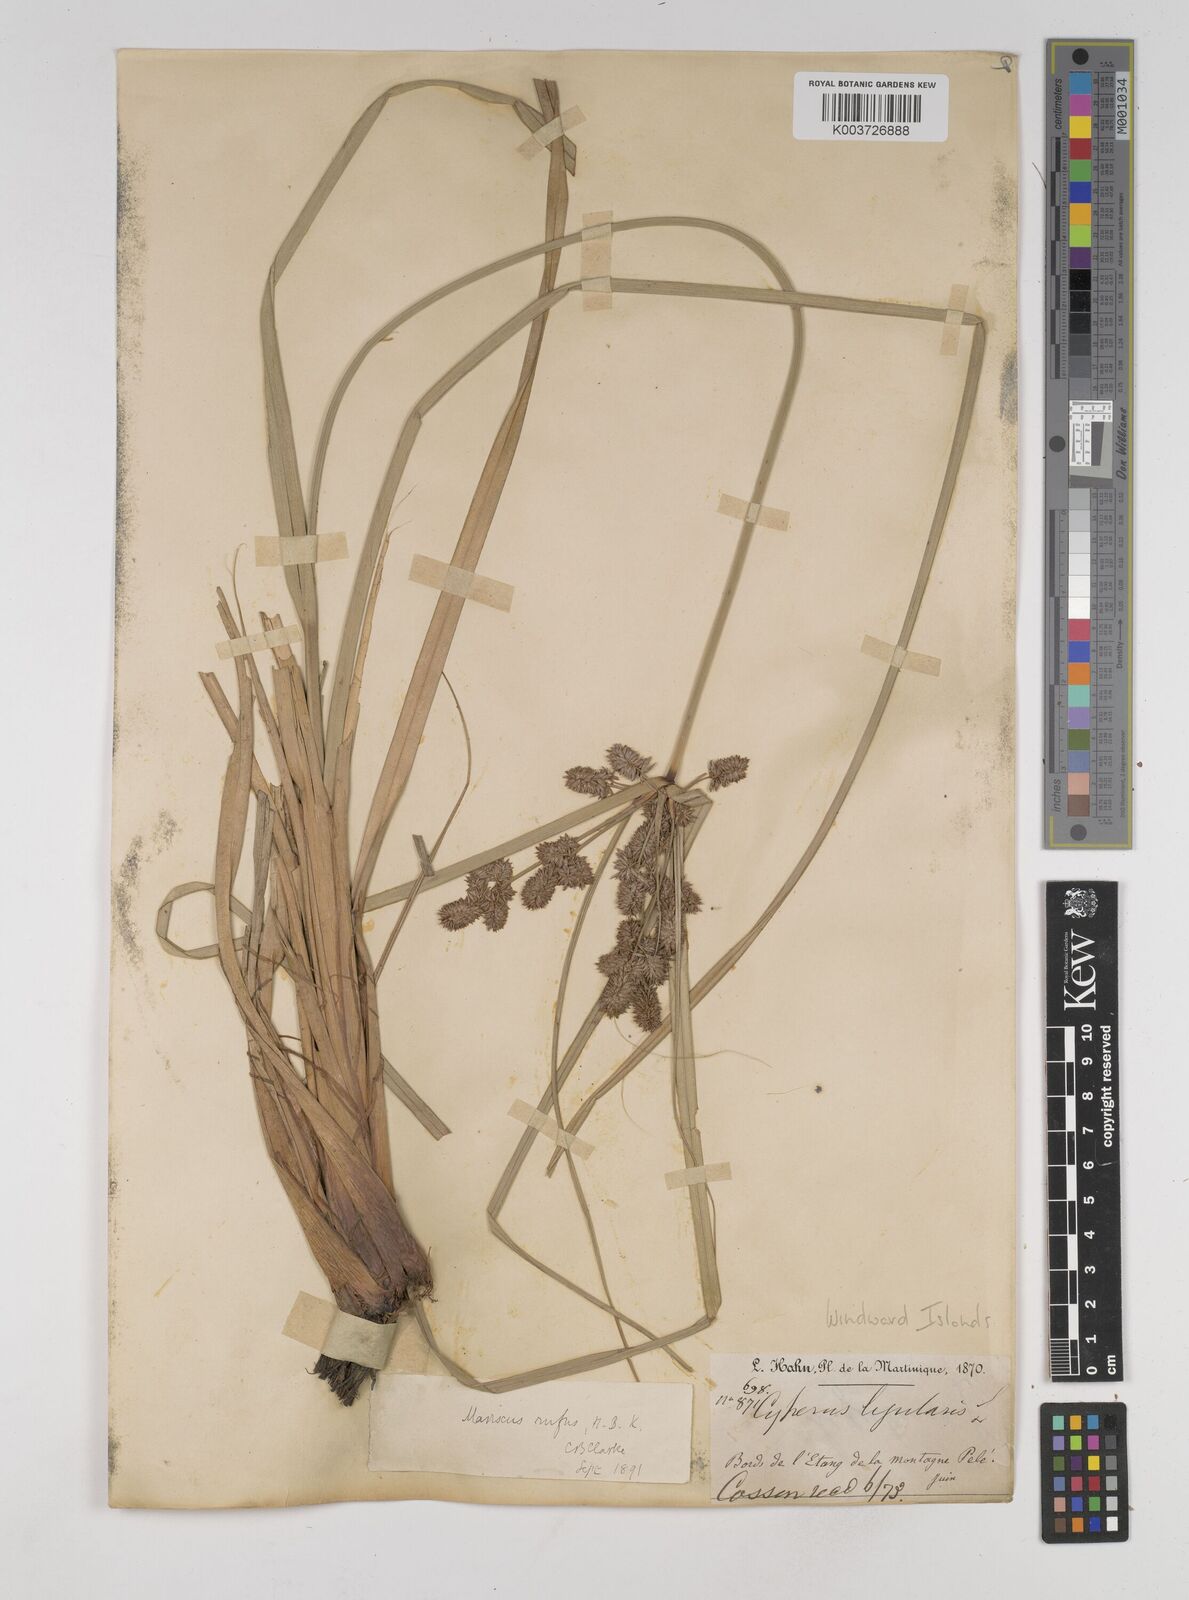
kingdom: Plantae
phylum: Tracheophyta
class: Liliopsida
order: Poales
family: Cyperaceae
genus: Cyperus
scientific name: Cyperus ligularis
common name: Swamp flat sedge
